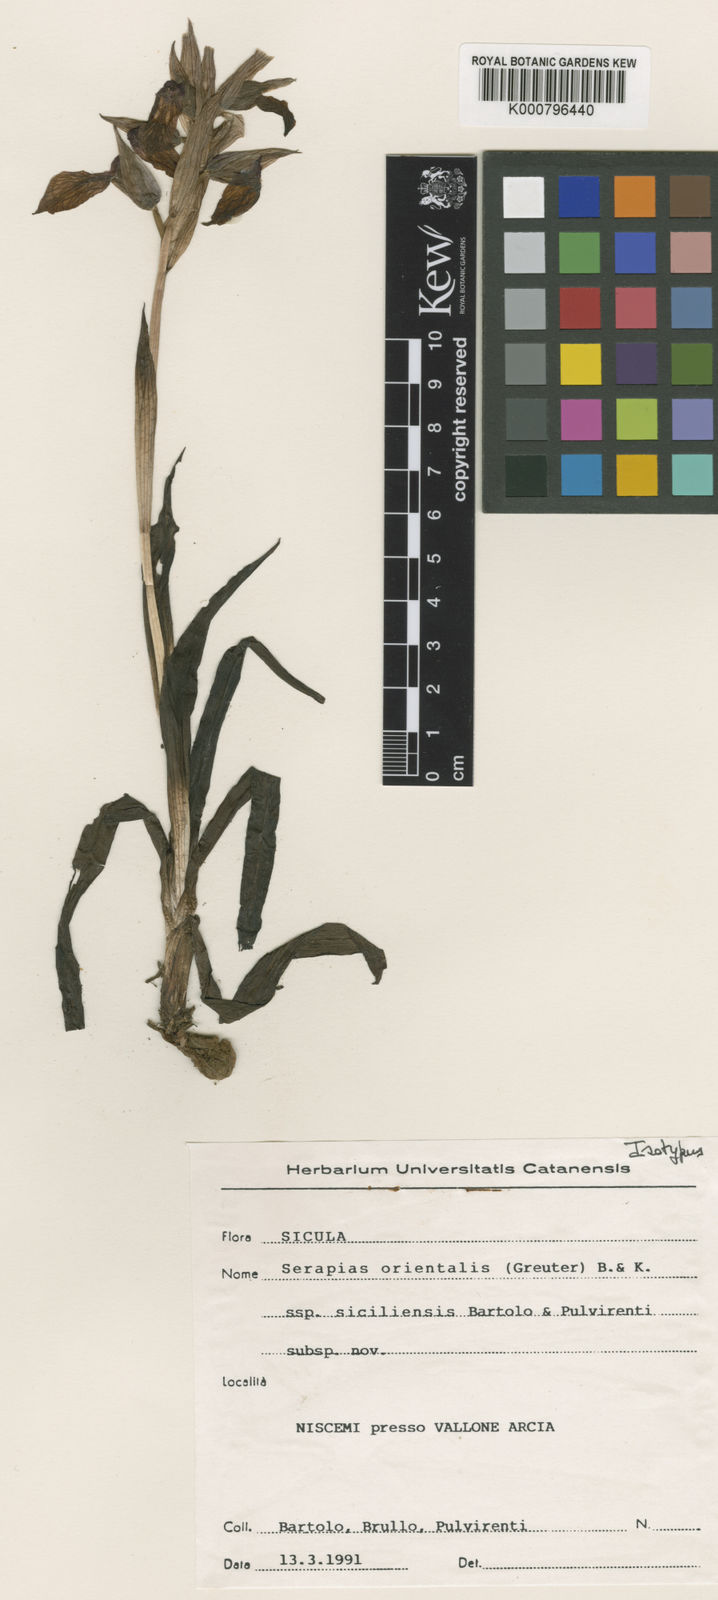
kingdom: Plantae
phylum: Tracheophyta
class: Liliopsida
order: Asparagales
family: Orchidaceae
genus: Serapias
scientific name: Serapias orientalis
